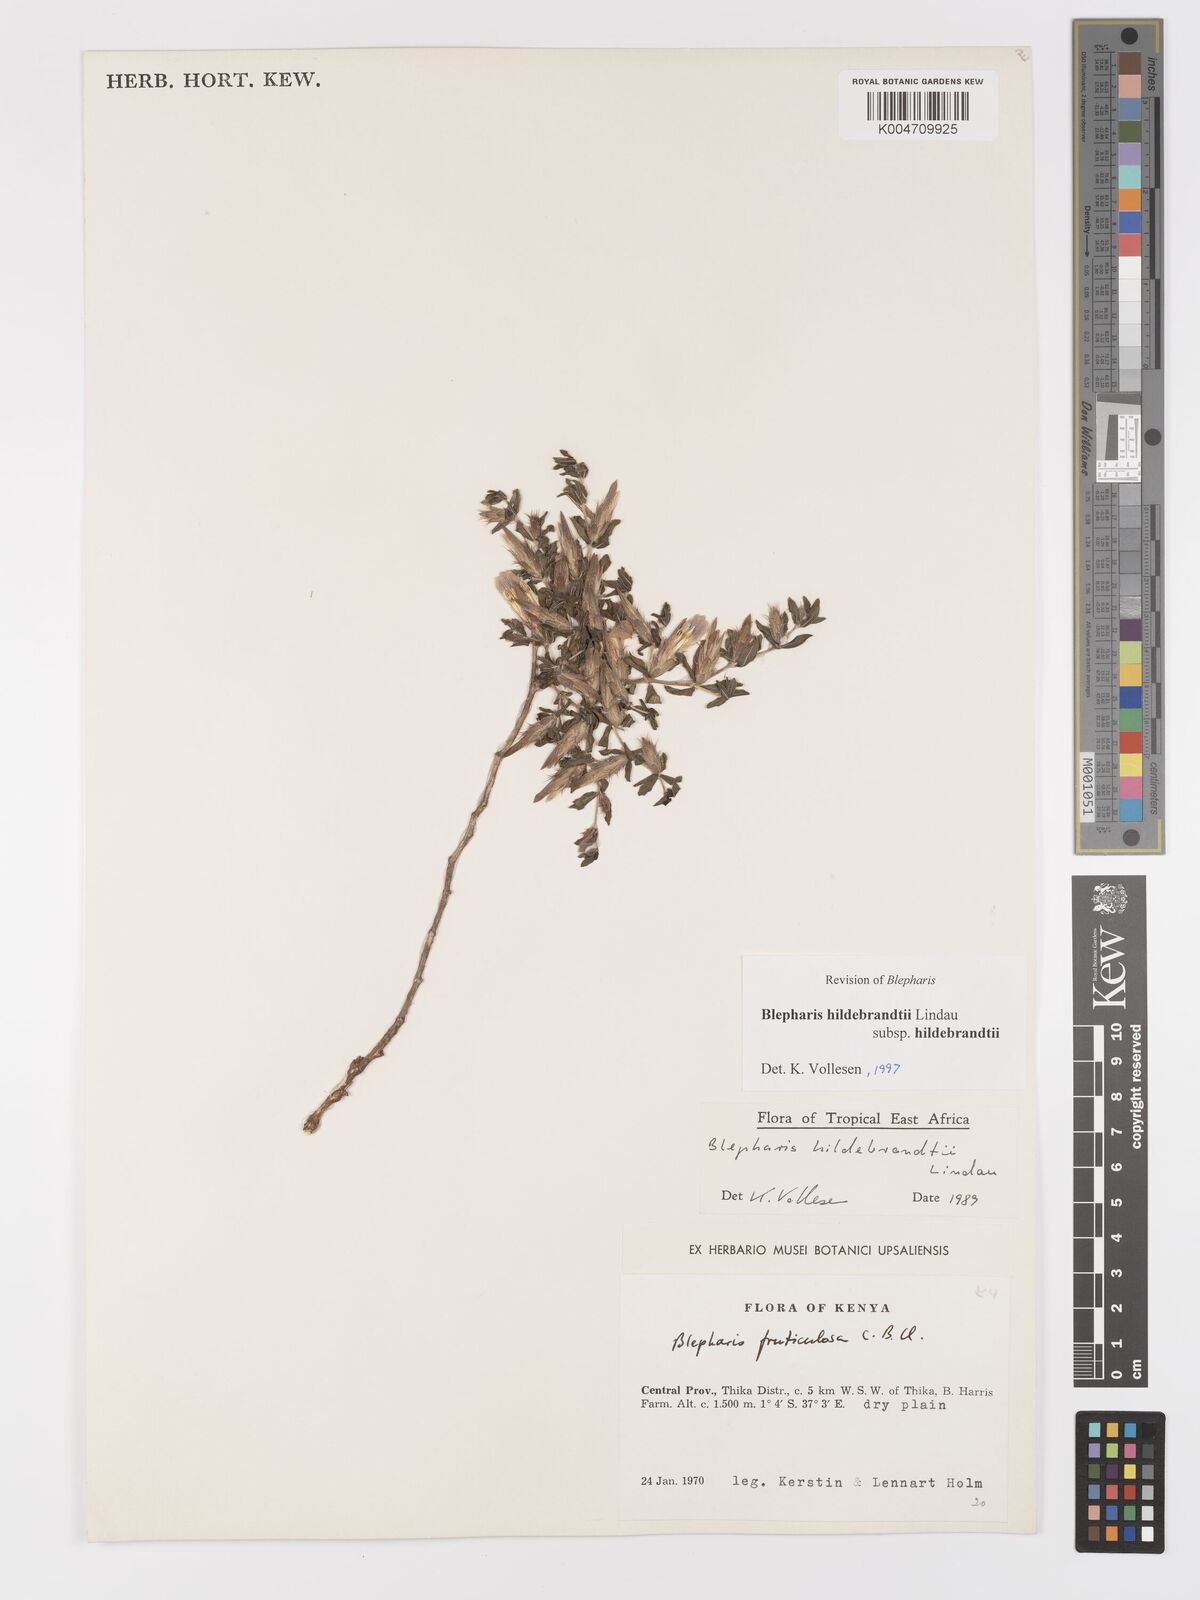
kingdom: Plantae
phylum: Tracheophyta
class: Magnoliopsida
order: Lamiales
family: Acanthaceae
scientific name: Acanthaceae
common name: Acanthaceae
